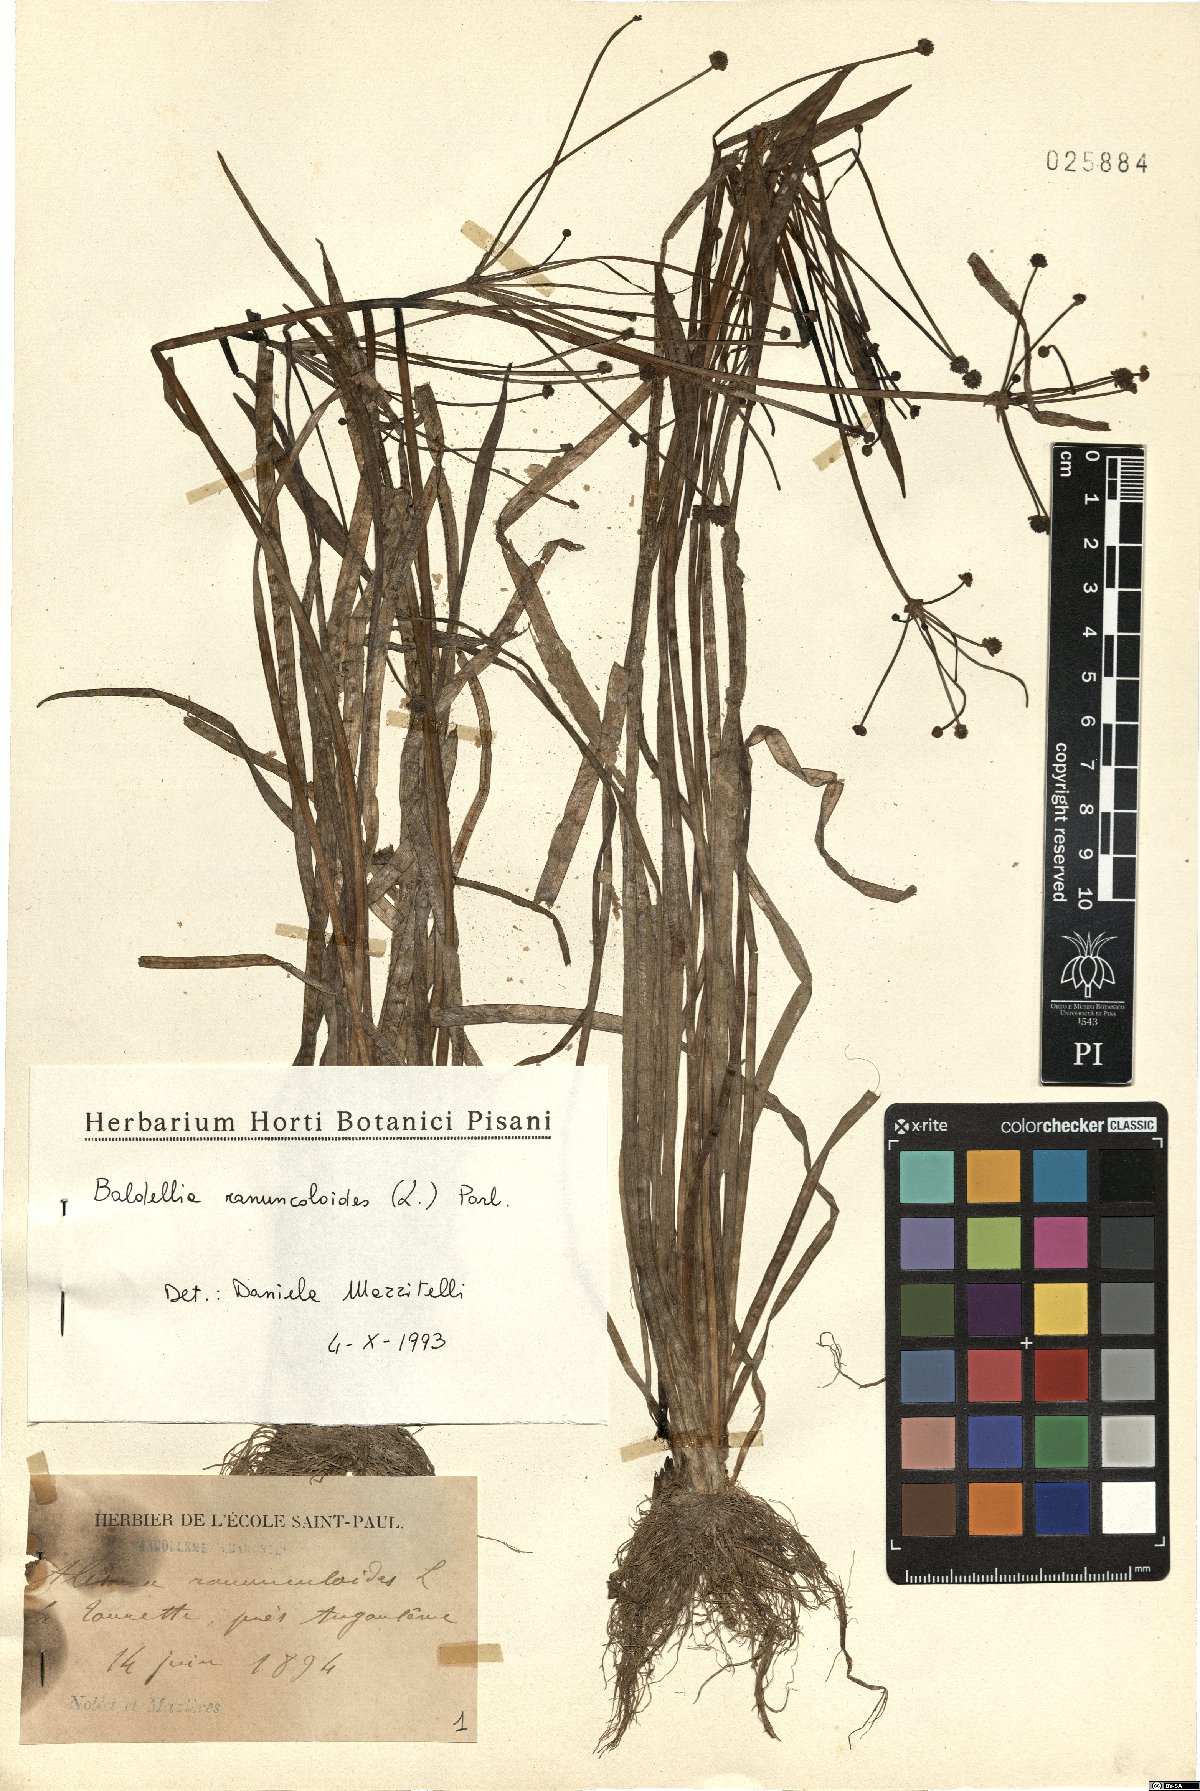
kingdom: Plantae
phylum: Tracheophyta
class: Liliopsida
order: Alismatales
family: Alismataceae
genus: Baldellia
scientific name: Baldellia ranunculoides
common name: Lesser water-plantain
